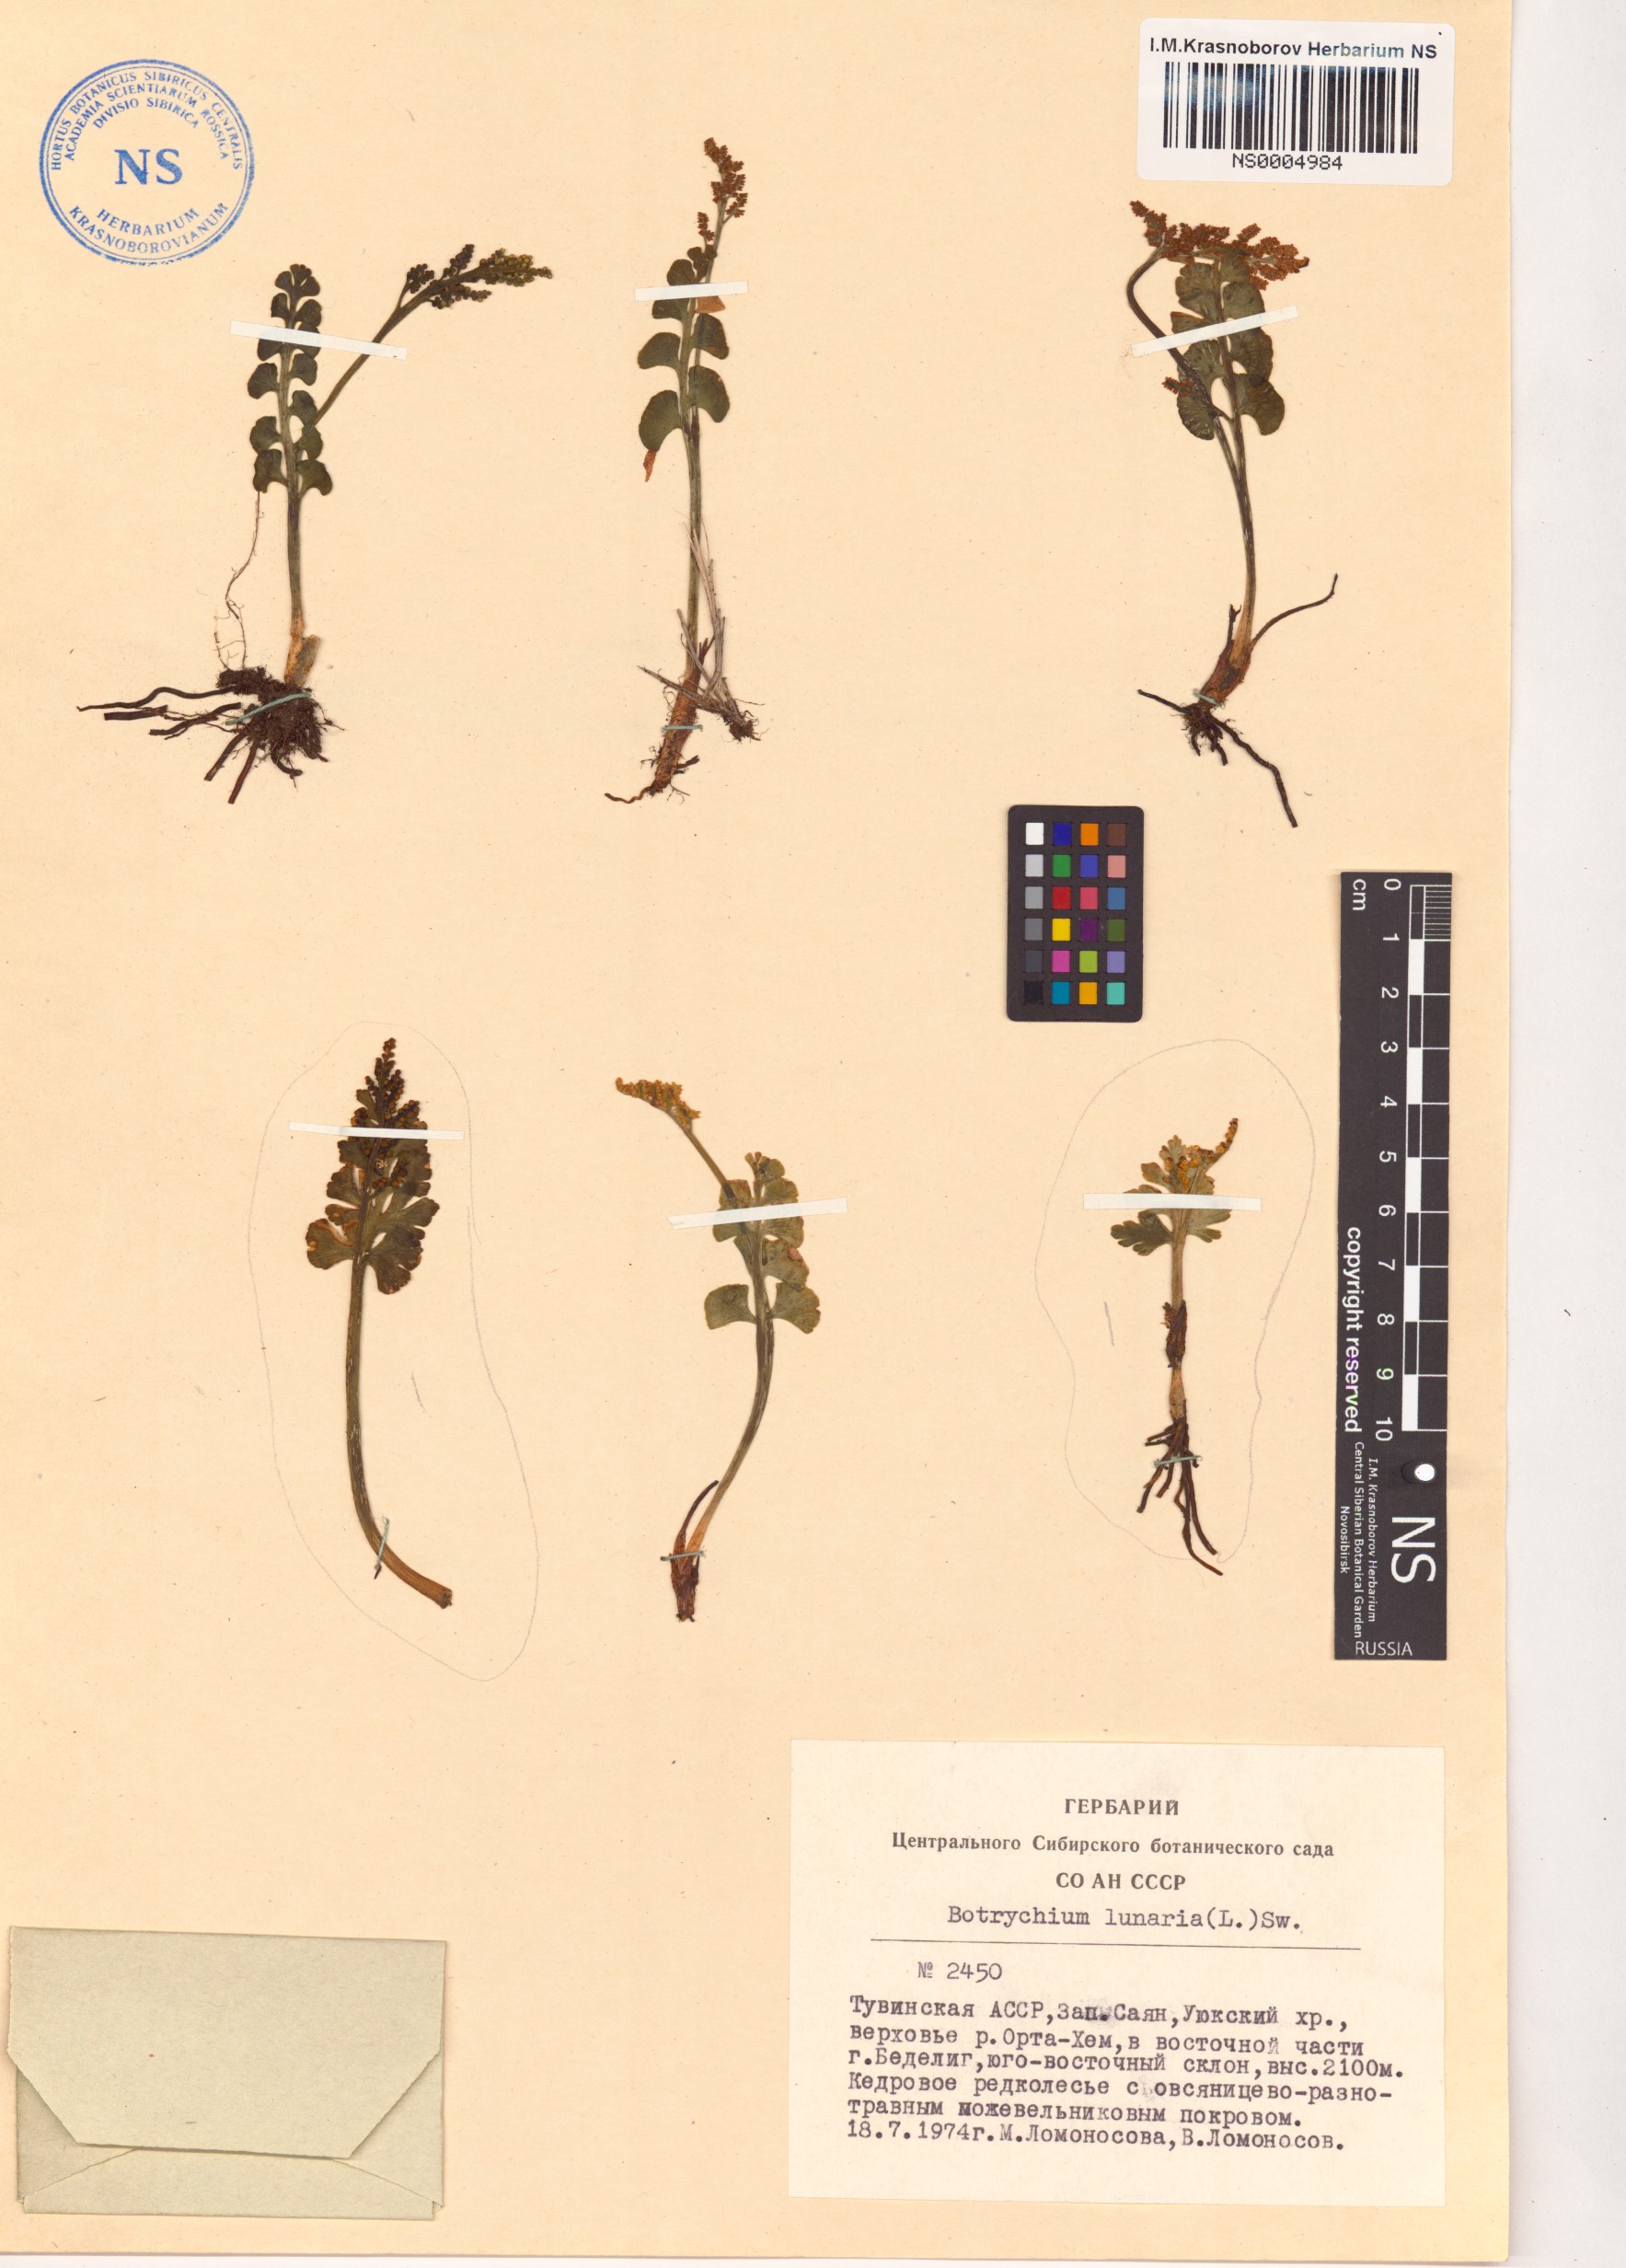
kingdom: Plantae
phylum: Tracheophyta
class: Polypodiopsida
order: Ophioglossales
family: Ophioglossaceae
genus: Botrychium
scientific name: Botrychium lunaria
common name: Moonwort
